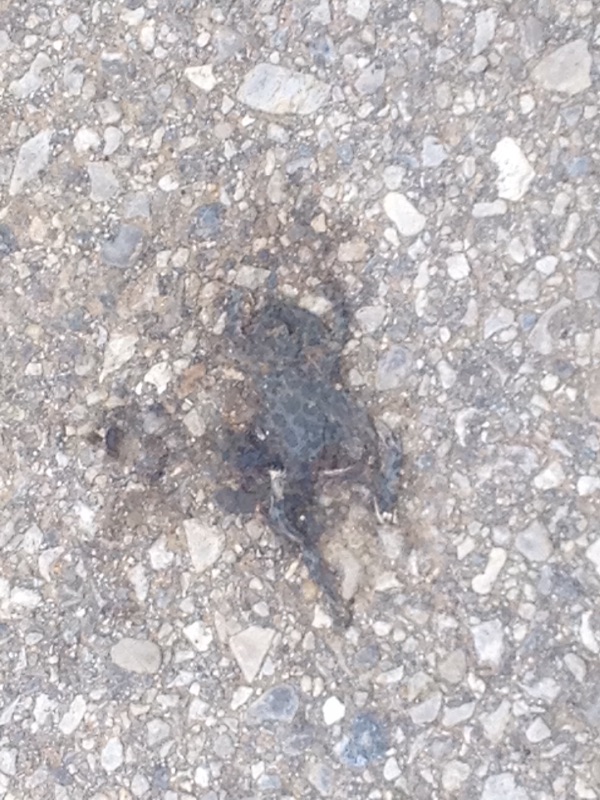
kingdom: Animalia
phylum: Chordata
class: Amphibia
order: Anura
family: Bufonidae
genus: Bufotes
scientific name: Bufotes viridis
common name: European green toad
